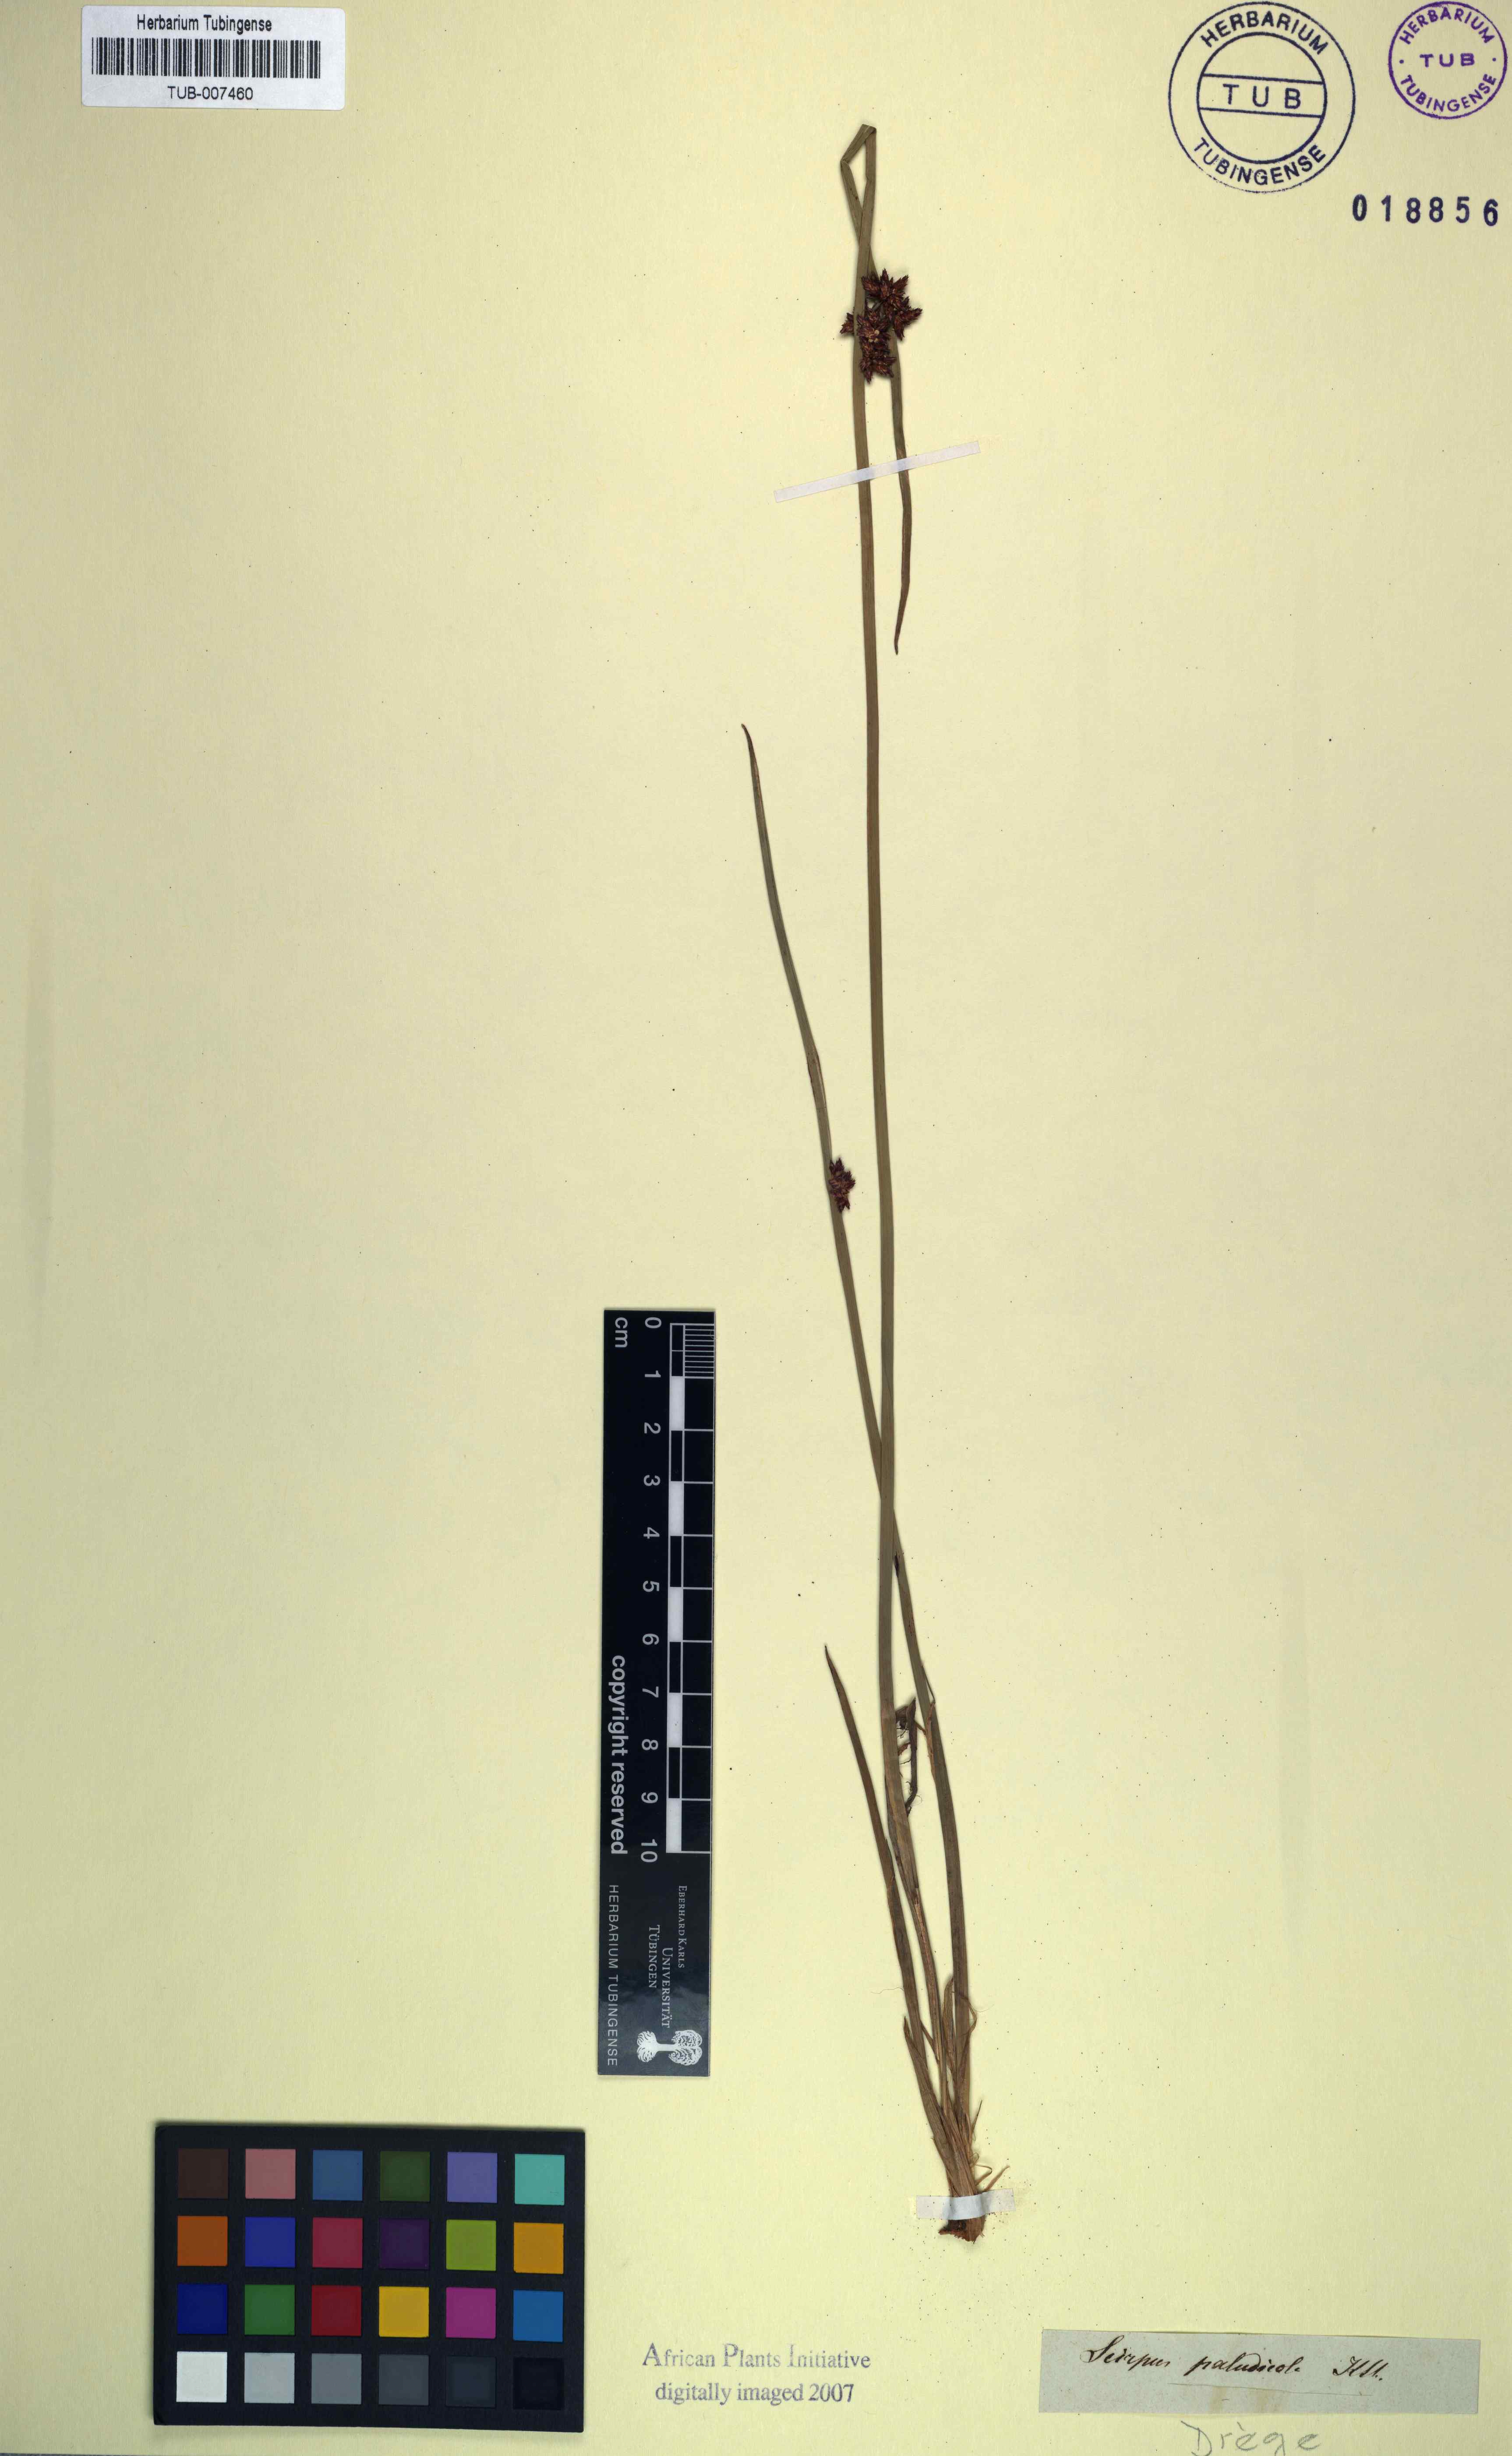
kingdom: Plantae
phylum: Tracheophyta
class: Liliopsida
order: Poales
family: Cyperaceae
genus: Schoenoplectiella
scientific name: Schoenoplectiella paludicola
